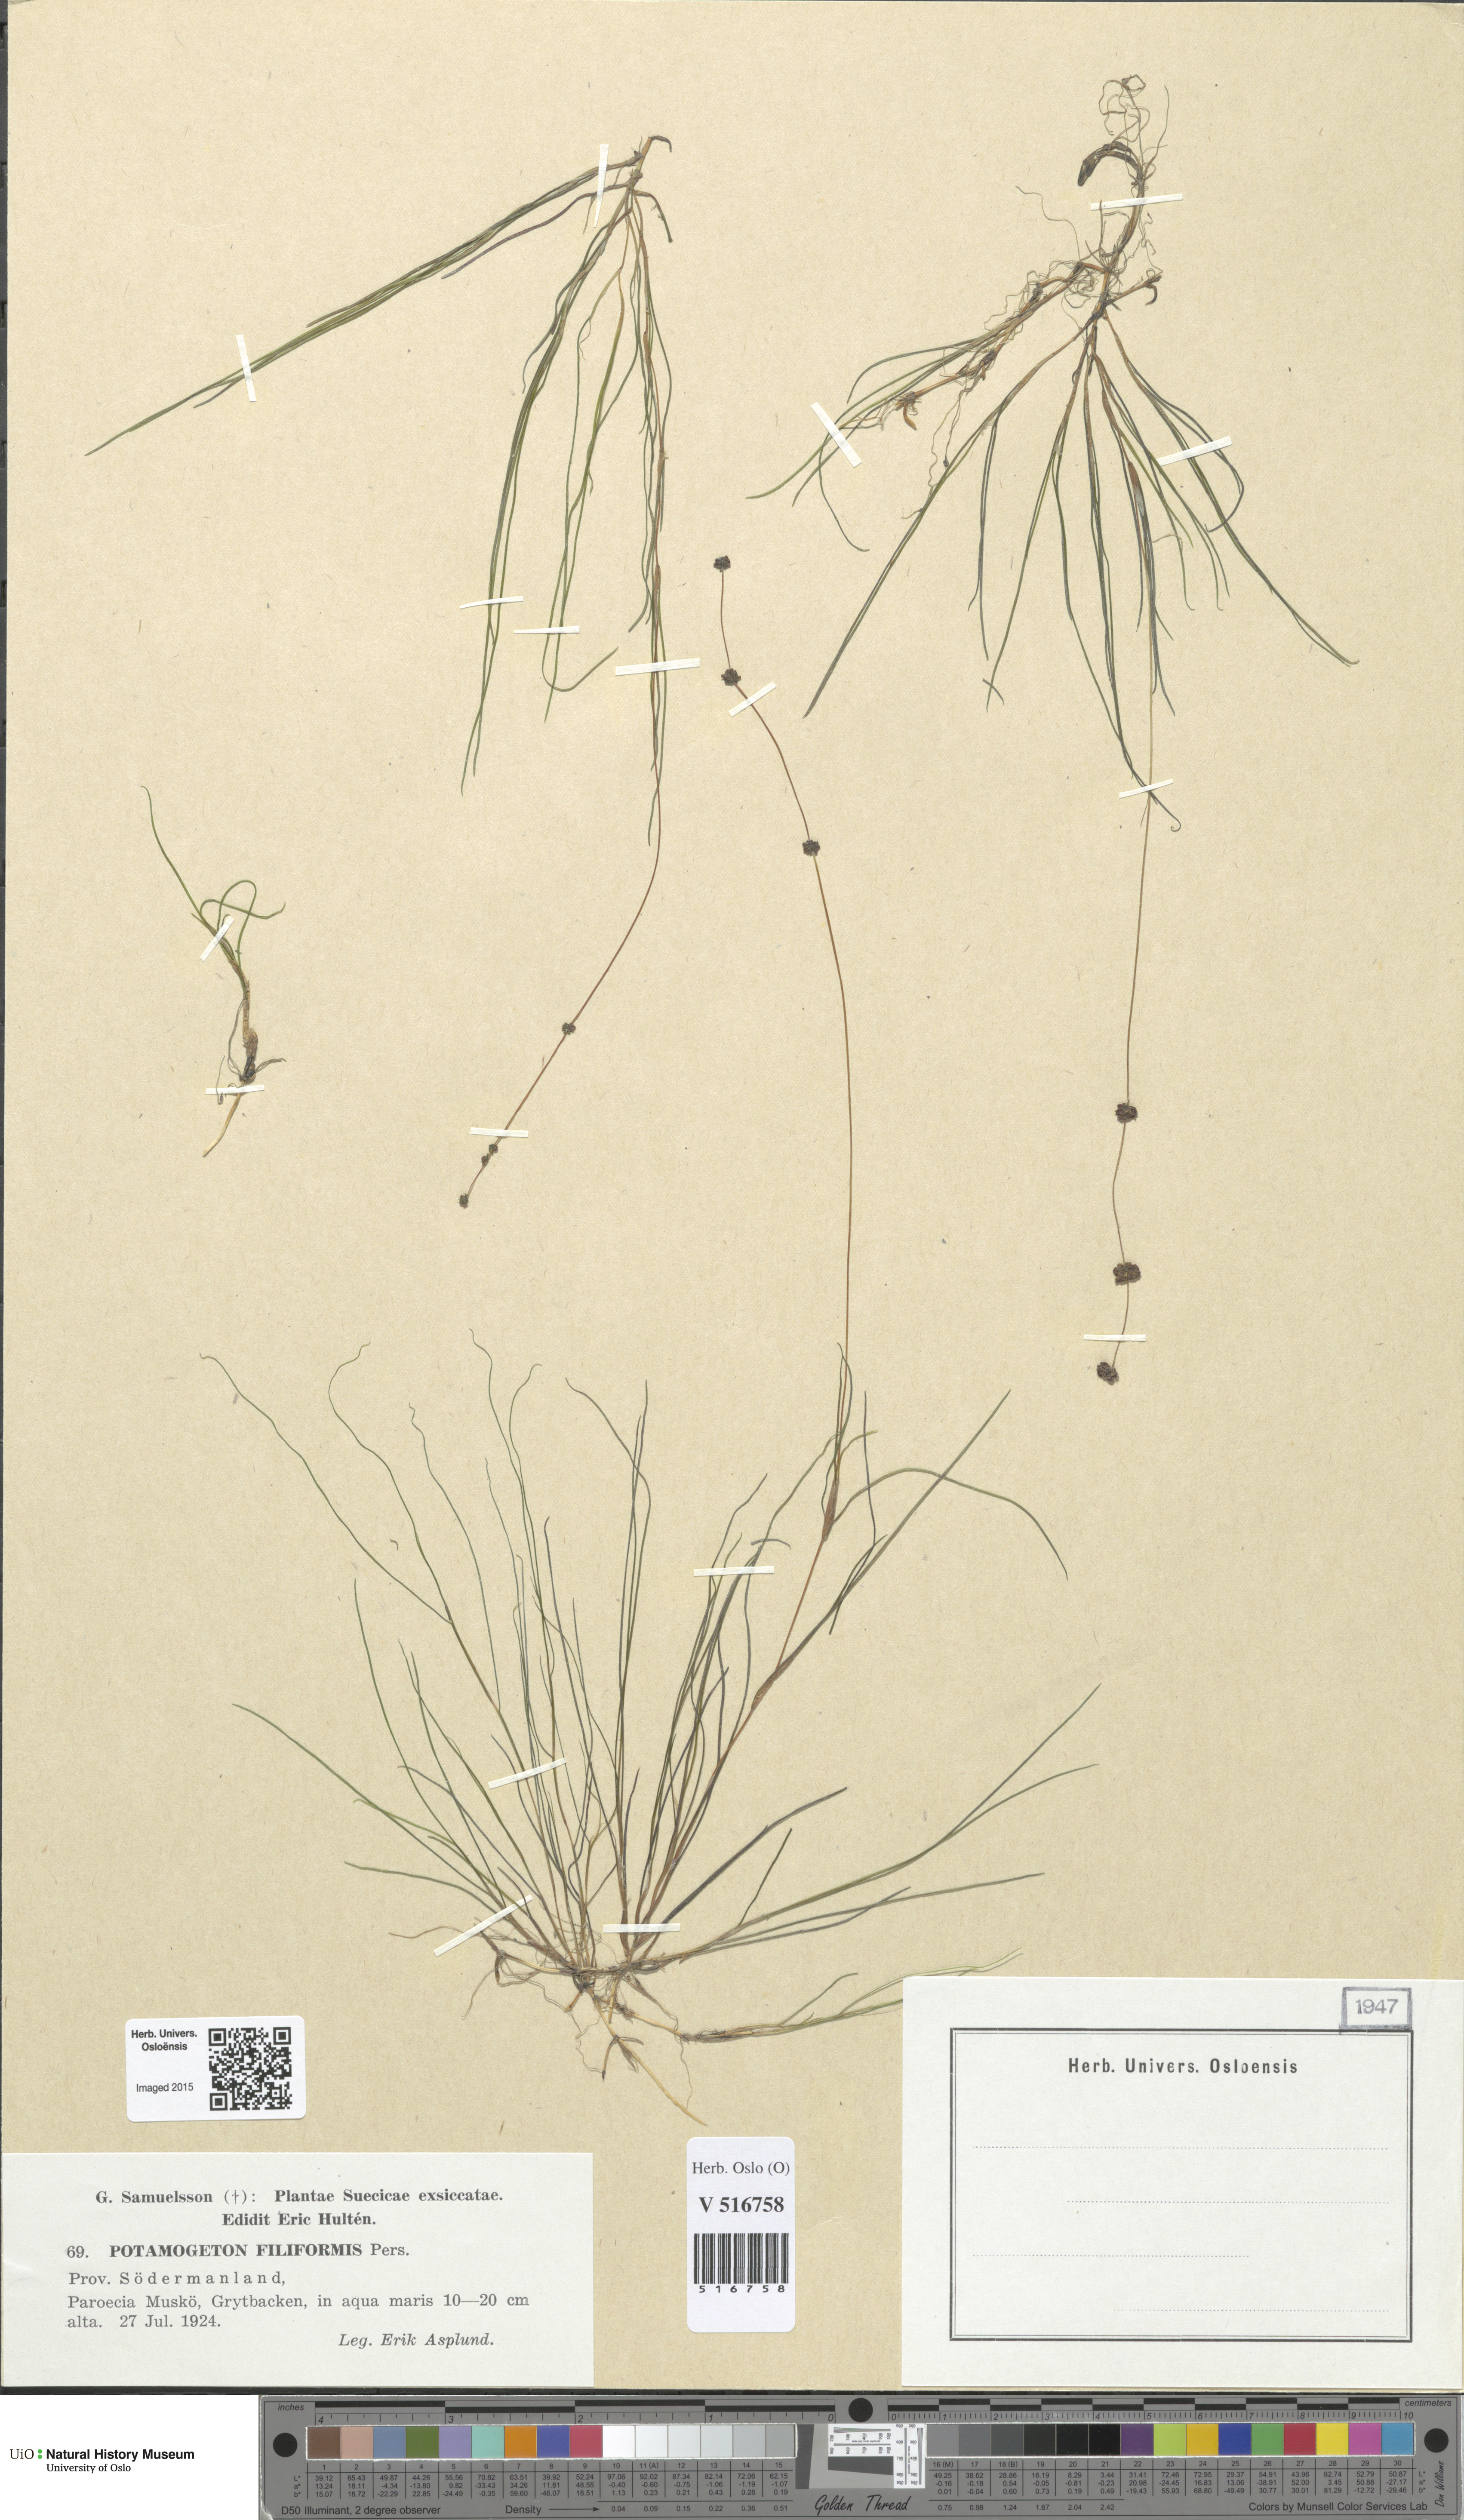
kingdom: Plantae
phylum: Tracheophyta
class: Liliopsida
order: Alismatales
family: Potamogetonaceae
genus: Stuckenia
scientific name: Stuckenia filiformis
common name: Alpine thread-leaved pondweed
